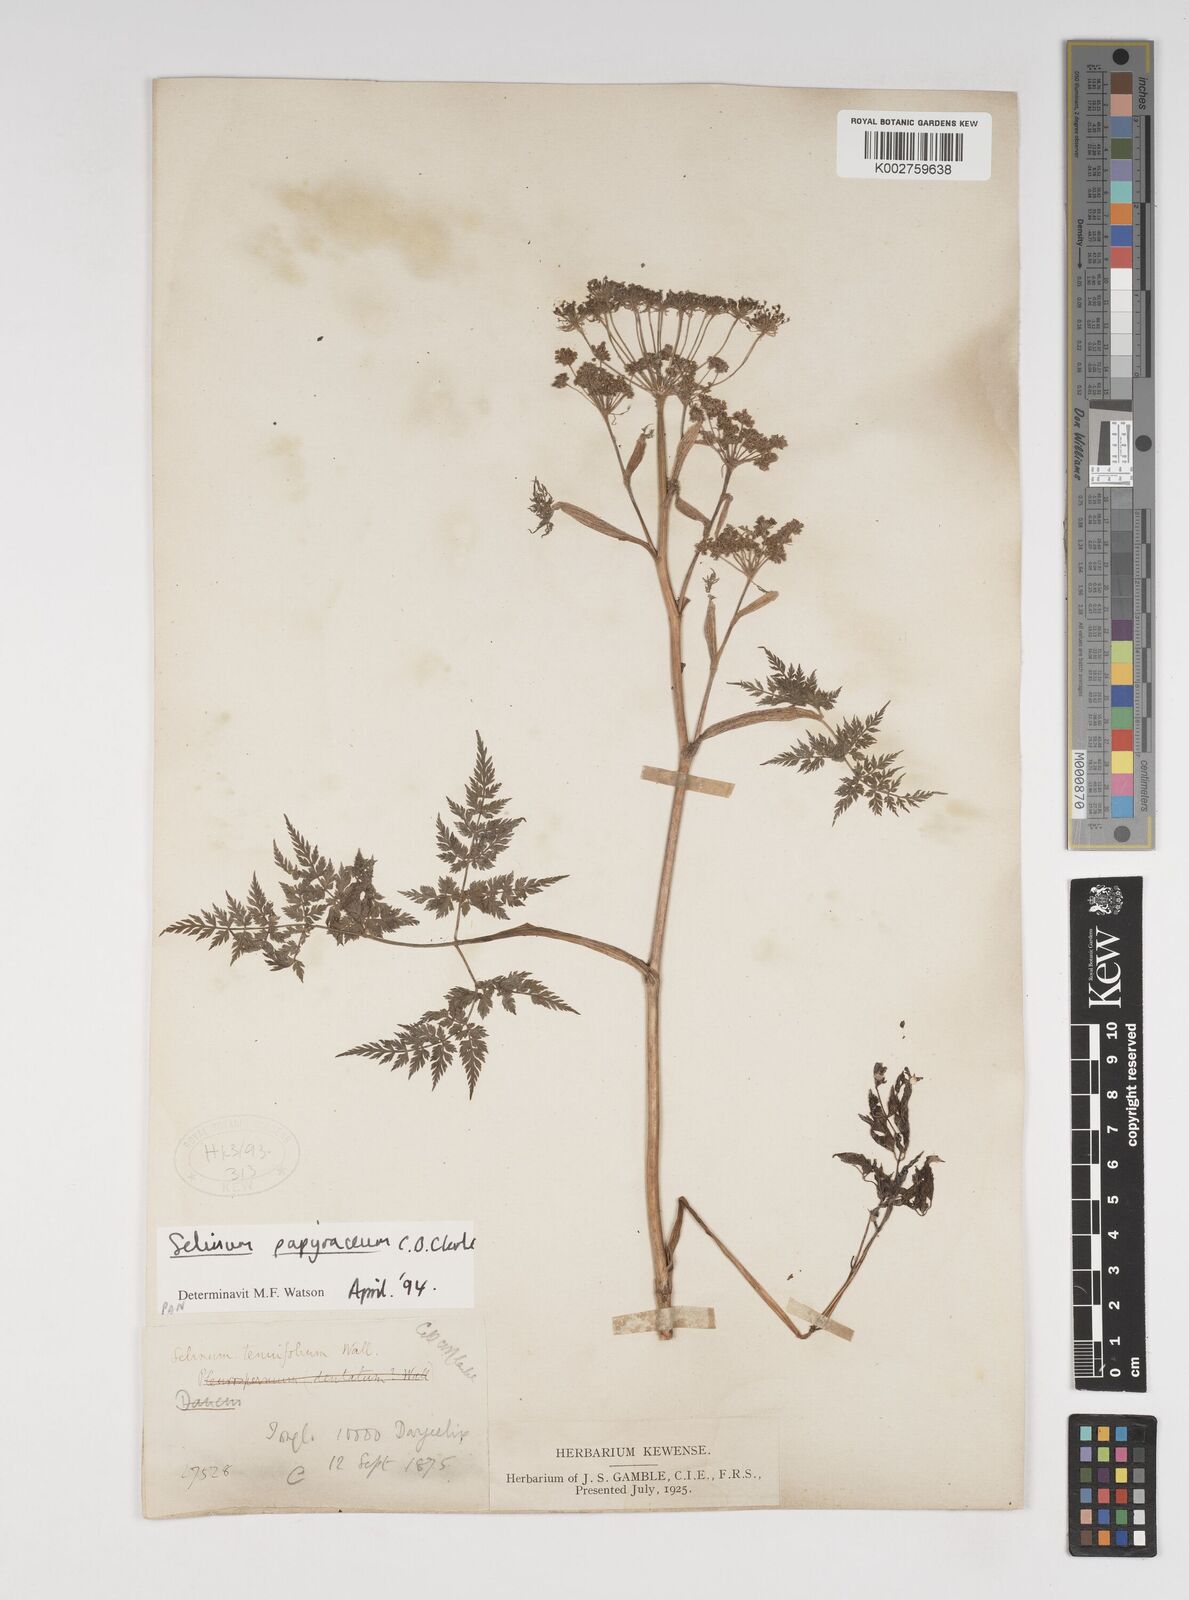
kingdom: Plantae
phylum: Tracheophyta
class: Magnoliopsida
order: Apiales
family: Apiaceae
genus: Conioselinum
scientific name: Conioselinum tataricum
